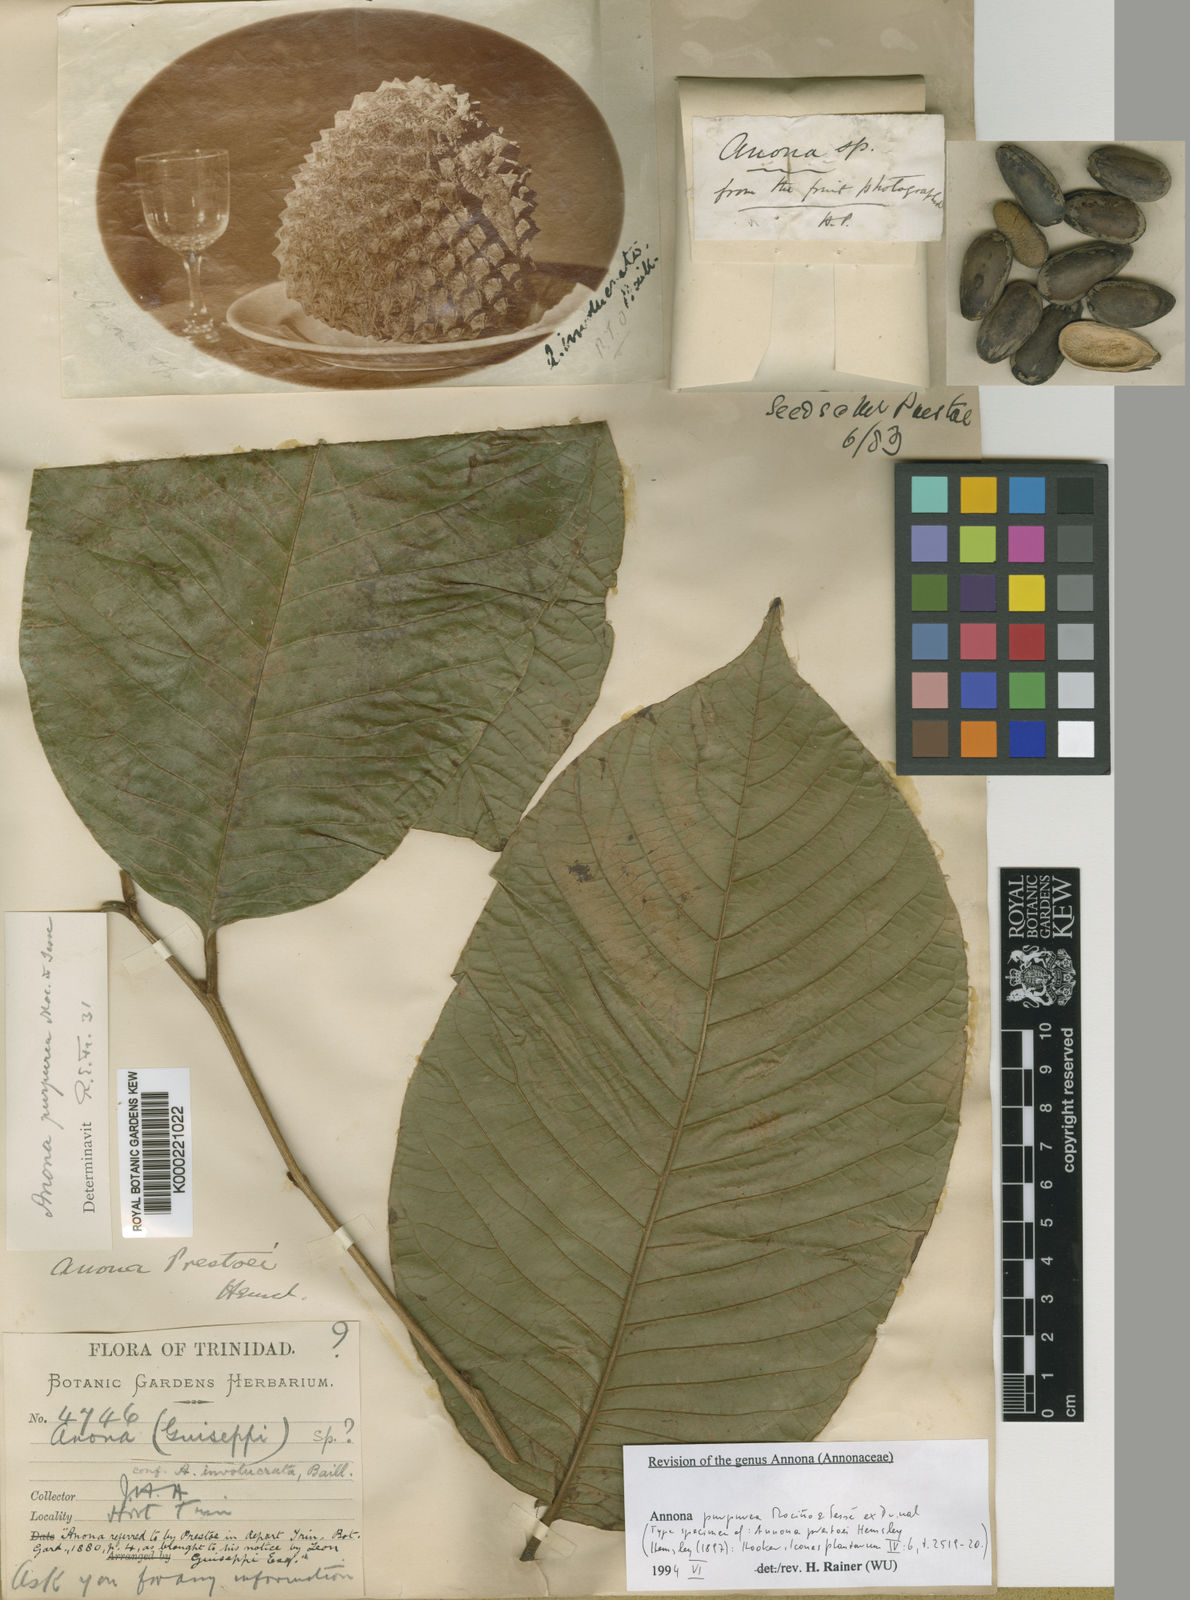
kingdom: Plantae
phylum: Tracheophyta
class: Magnoliopsida
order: Magnoliales
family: Annonaceae
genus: Annona
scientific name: Annona
